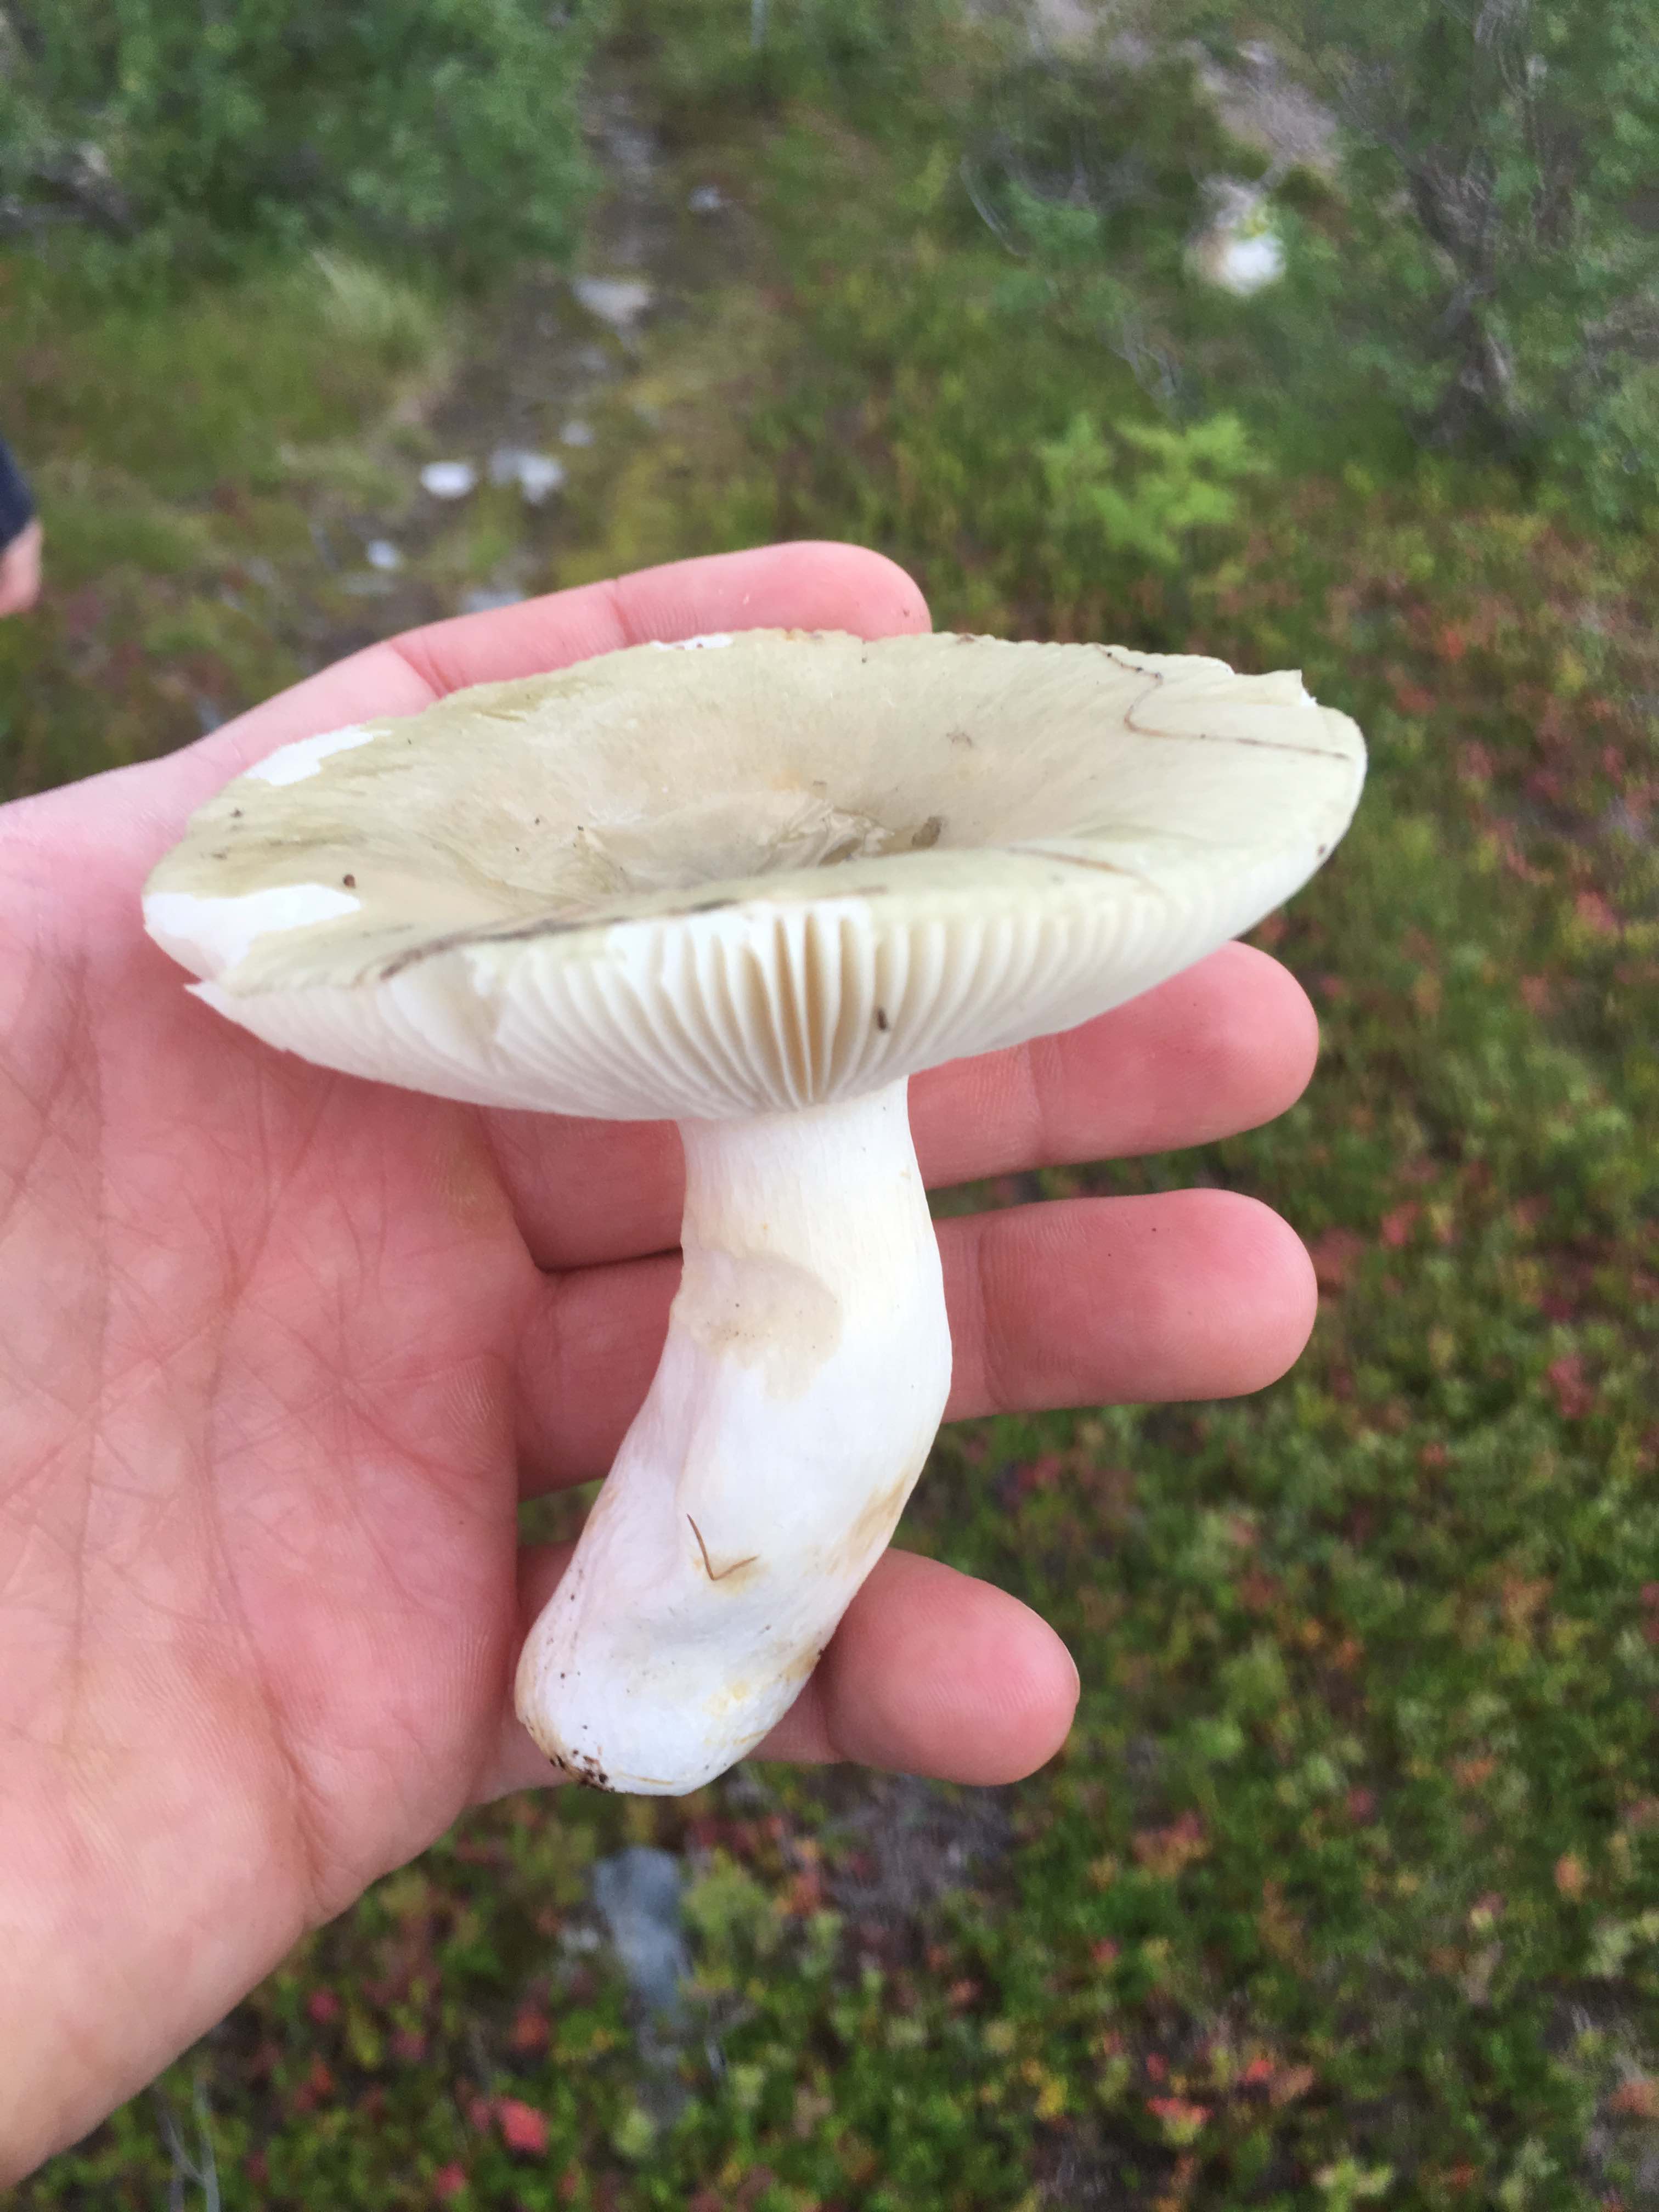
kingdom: Fungi
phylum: Basidiomycota
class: Agaricomycetes
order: Russulales
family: Russulaceae
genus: Russula
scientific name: Russula aeruginea
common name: græsgrøn skørhat
